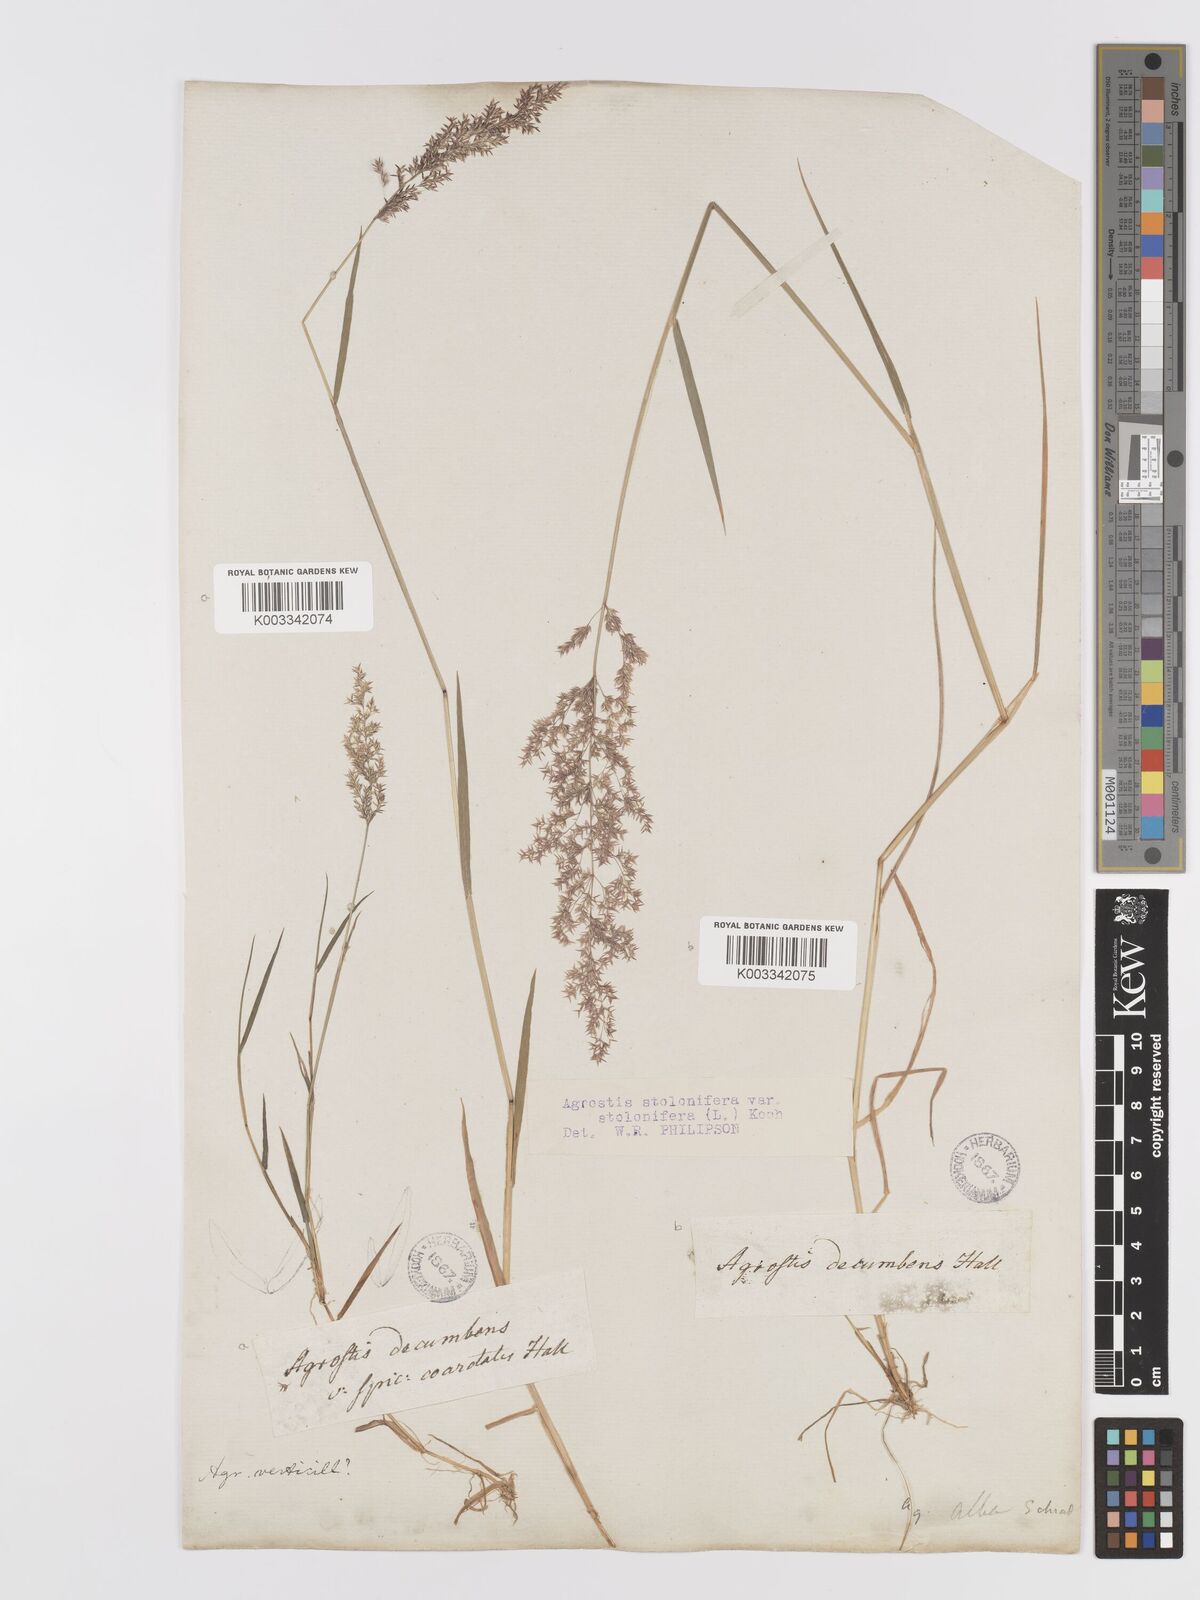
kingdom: Plantae
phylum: Tracheophyta
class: Liliopsida
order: Poales
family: Poaceae
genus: Agrostis
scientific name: Agrostis stolonifera
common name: Creeping bentgrass
